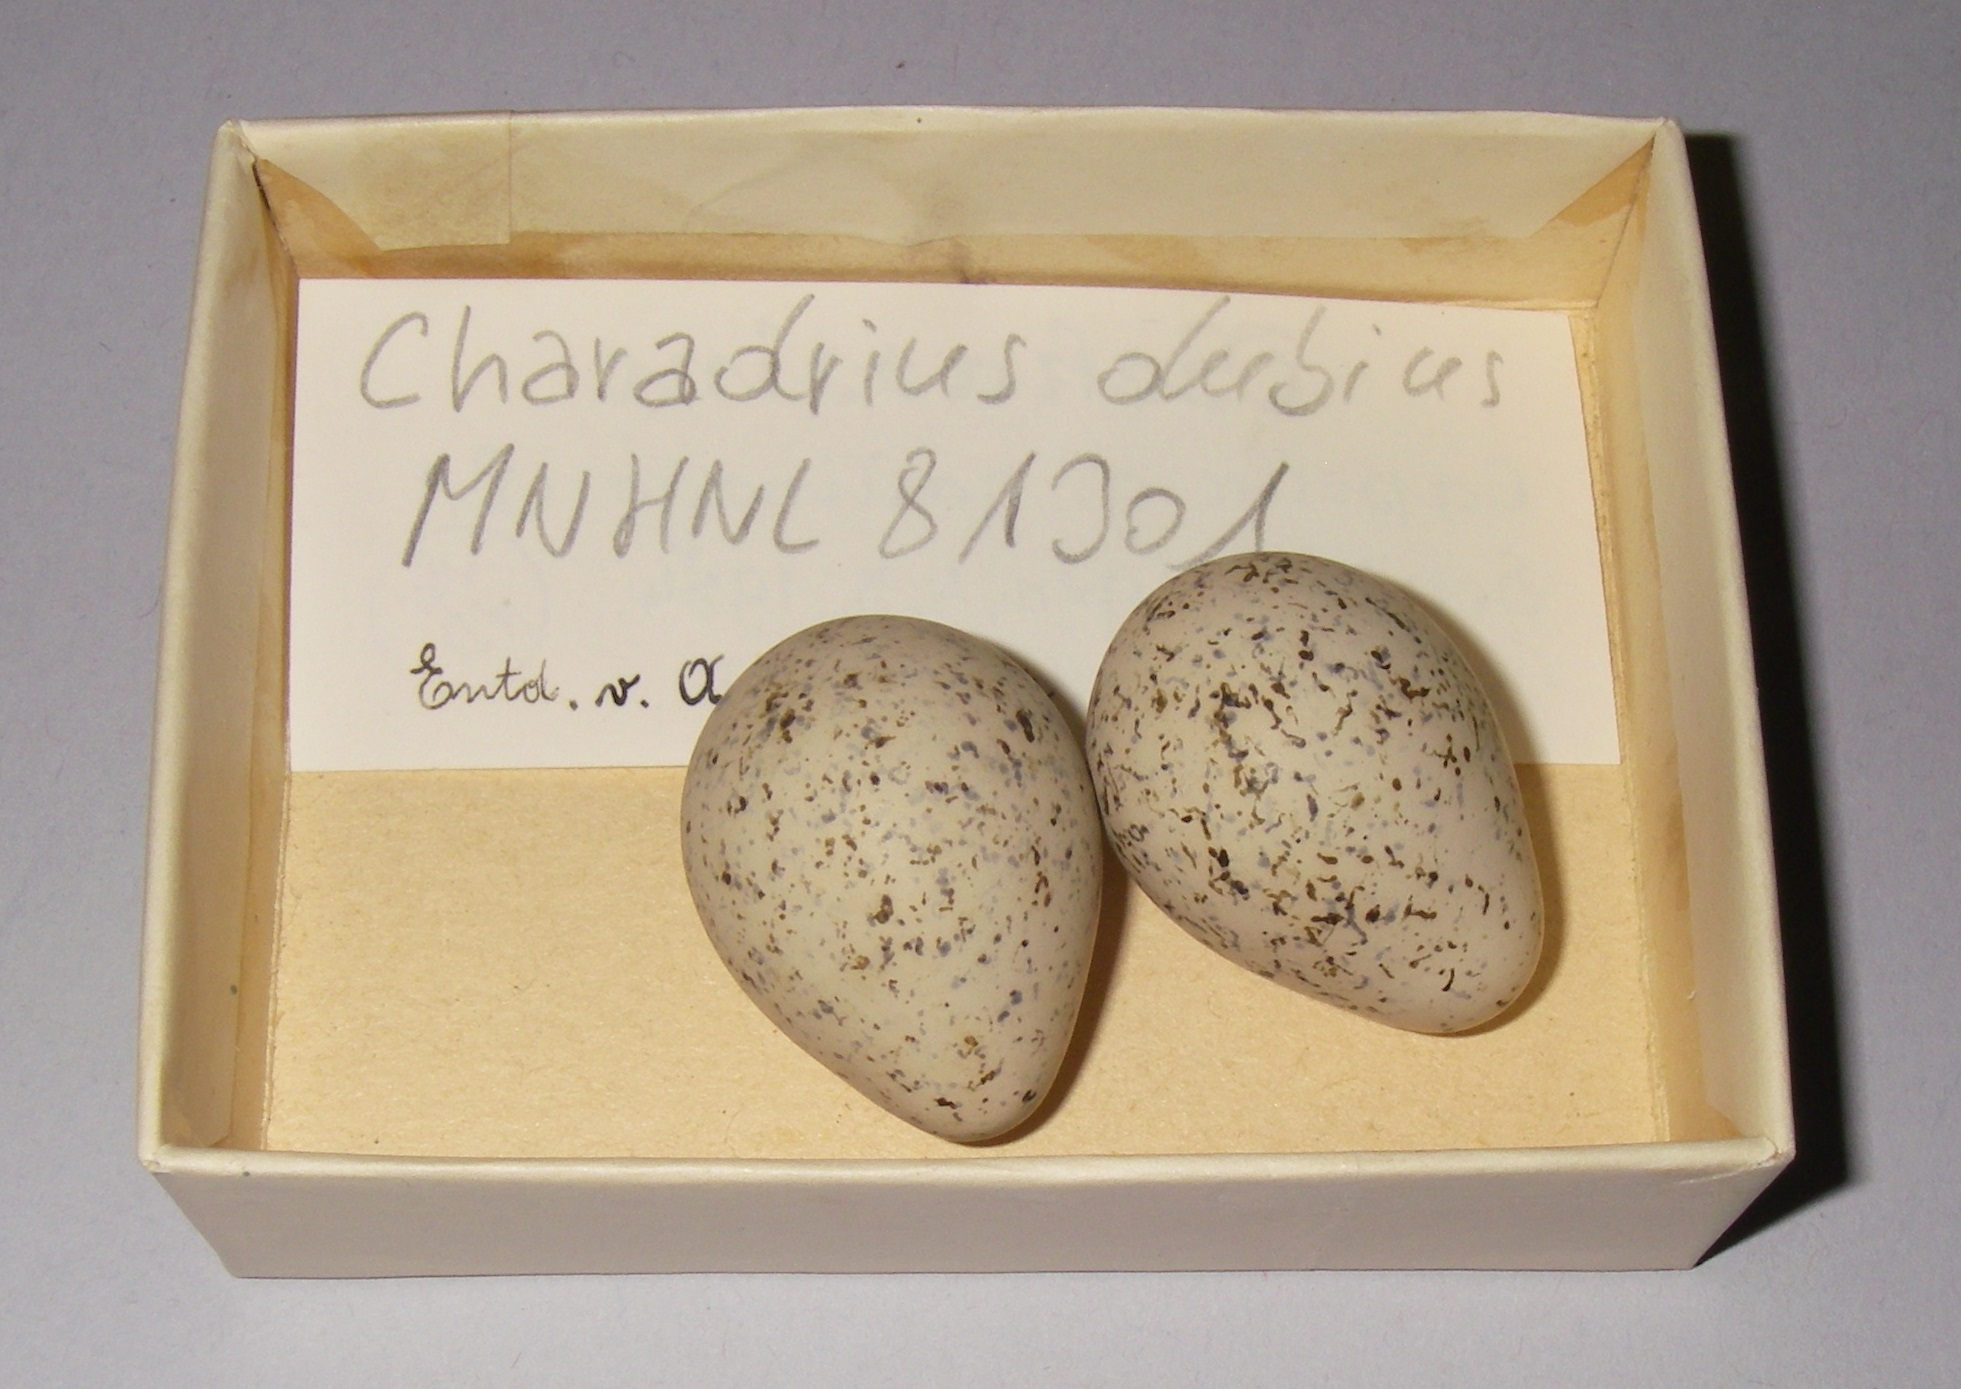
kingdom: Animalia
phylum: Chordata
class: Aves
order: Charadriiformes
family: Charadriidae
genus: Charadrius
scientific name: Charadrius dubius
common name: Little ringed plover
